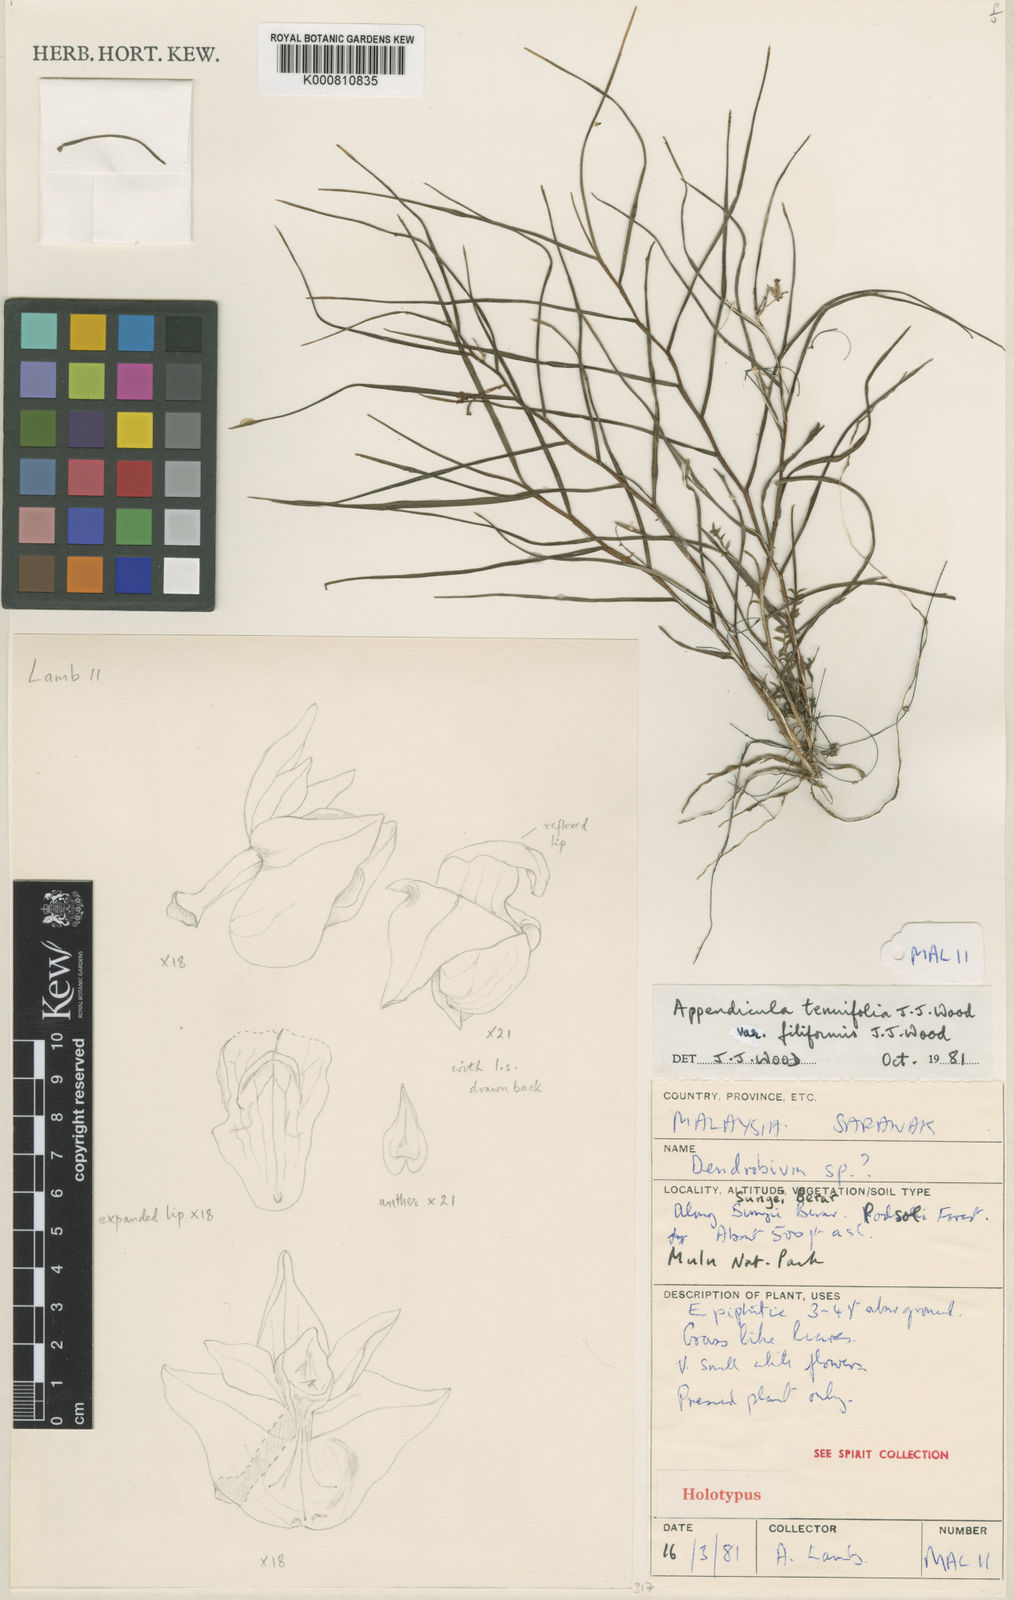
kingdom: Plantae
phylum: Tracheophyta
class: Liliopsida
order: Asparagales
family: Orchidaceae
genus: Appendicula
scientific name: Appendicula tenuifolia
